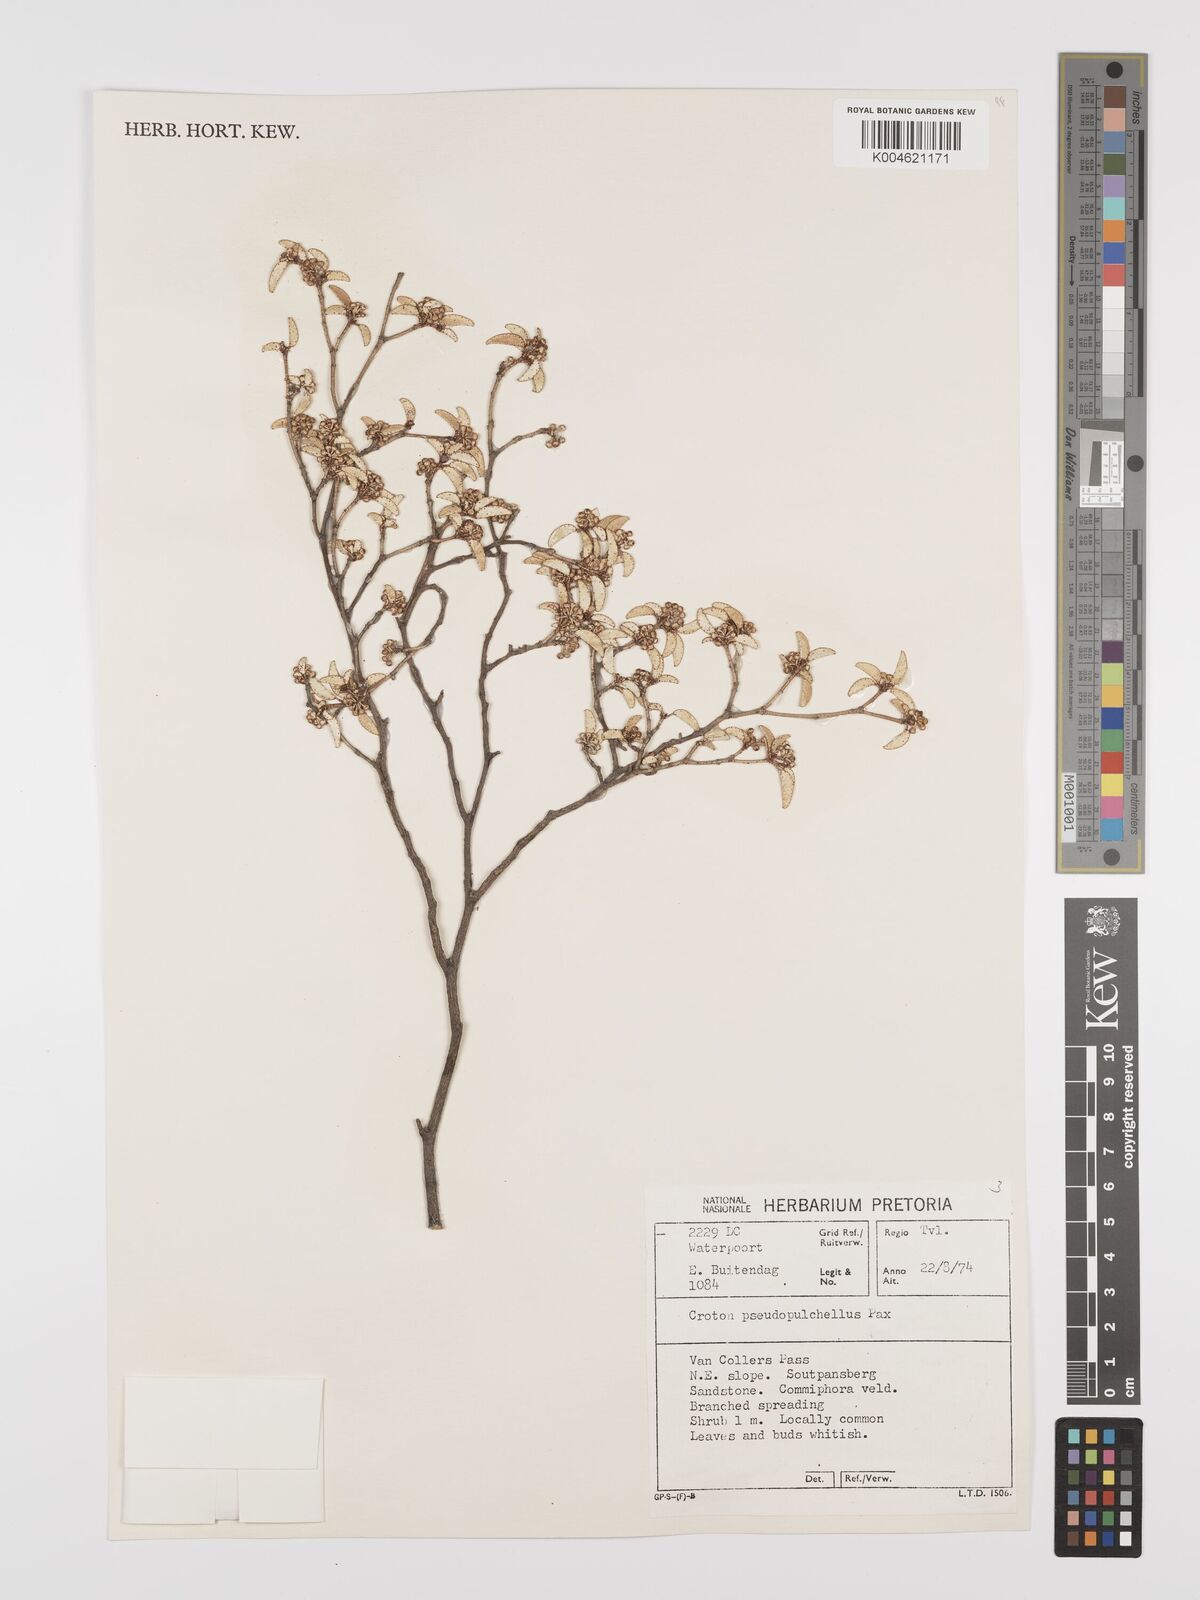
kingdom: Plantae
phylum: Tracheophyta
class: Magnoliopsida
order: Malpighiales
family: Euphorbiaceae
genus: Croton
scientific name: Croton pseudopulchellus
